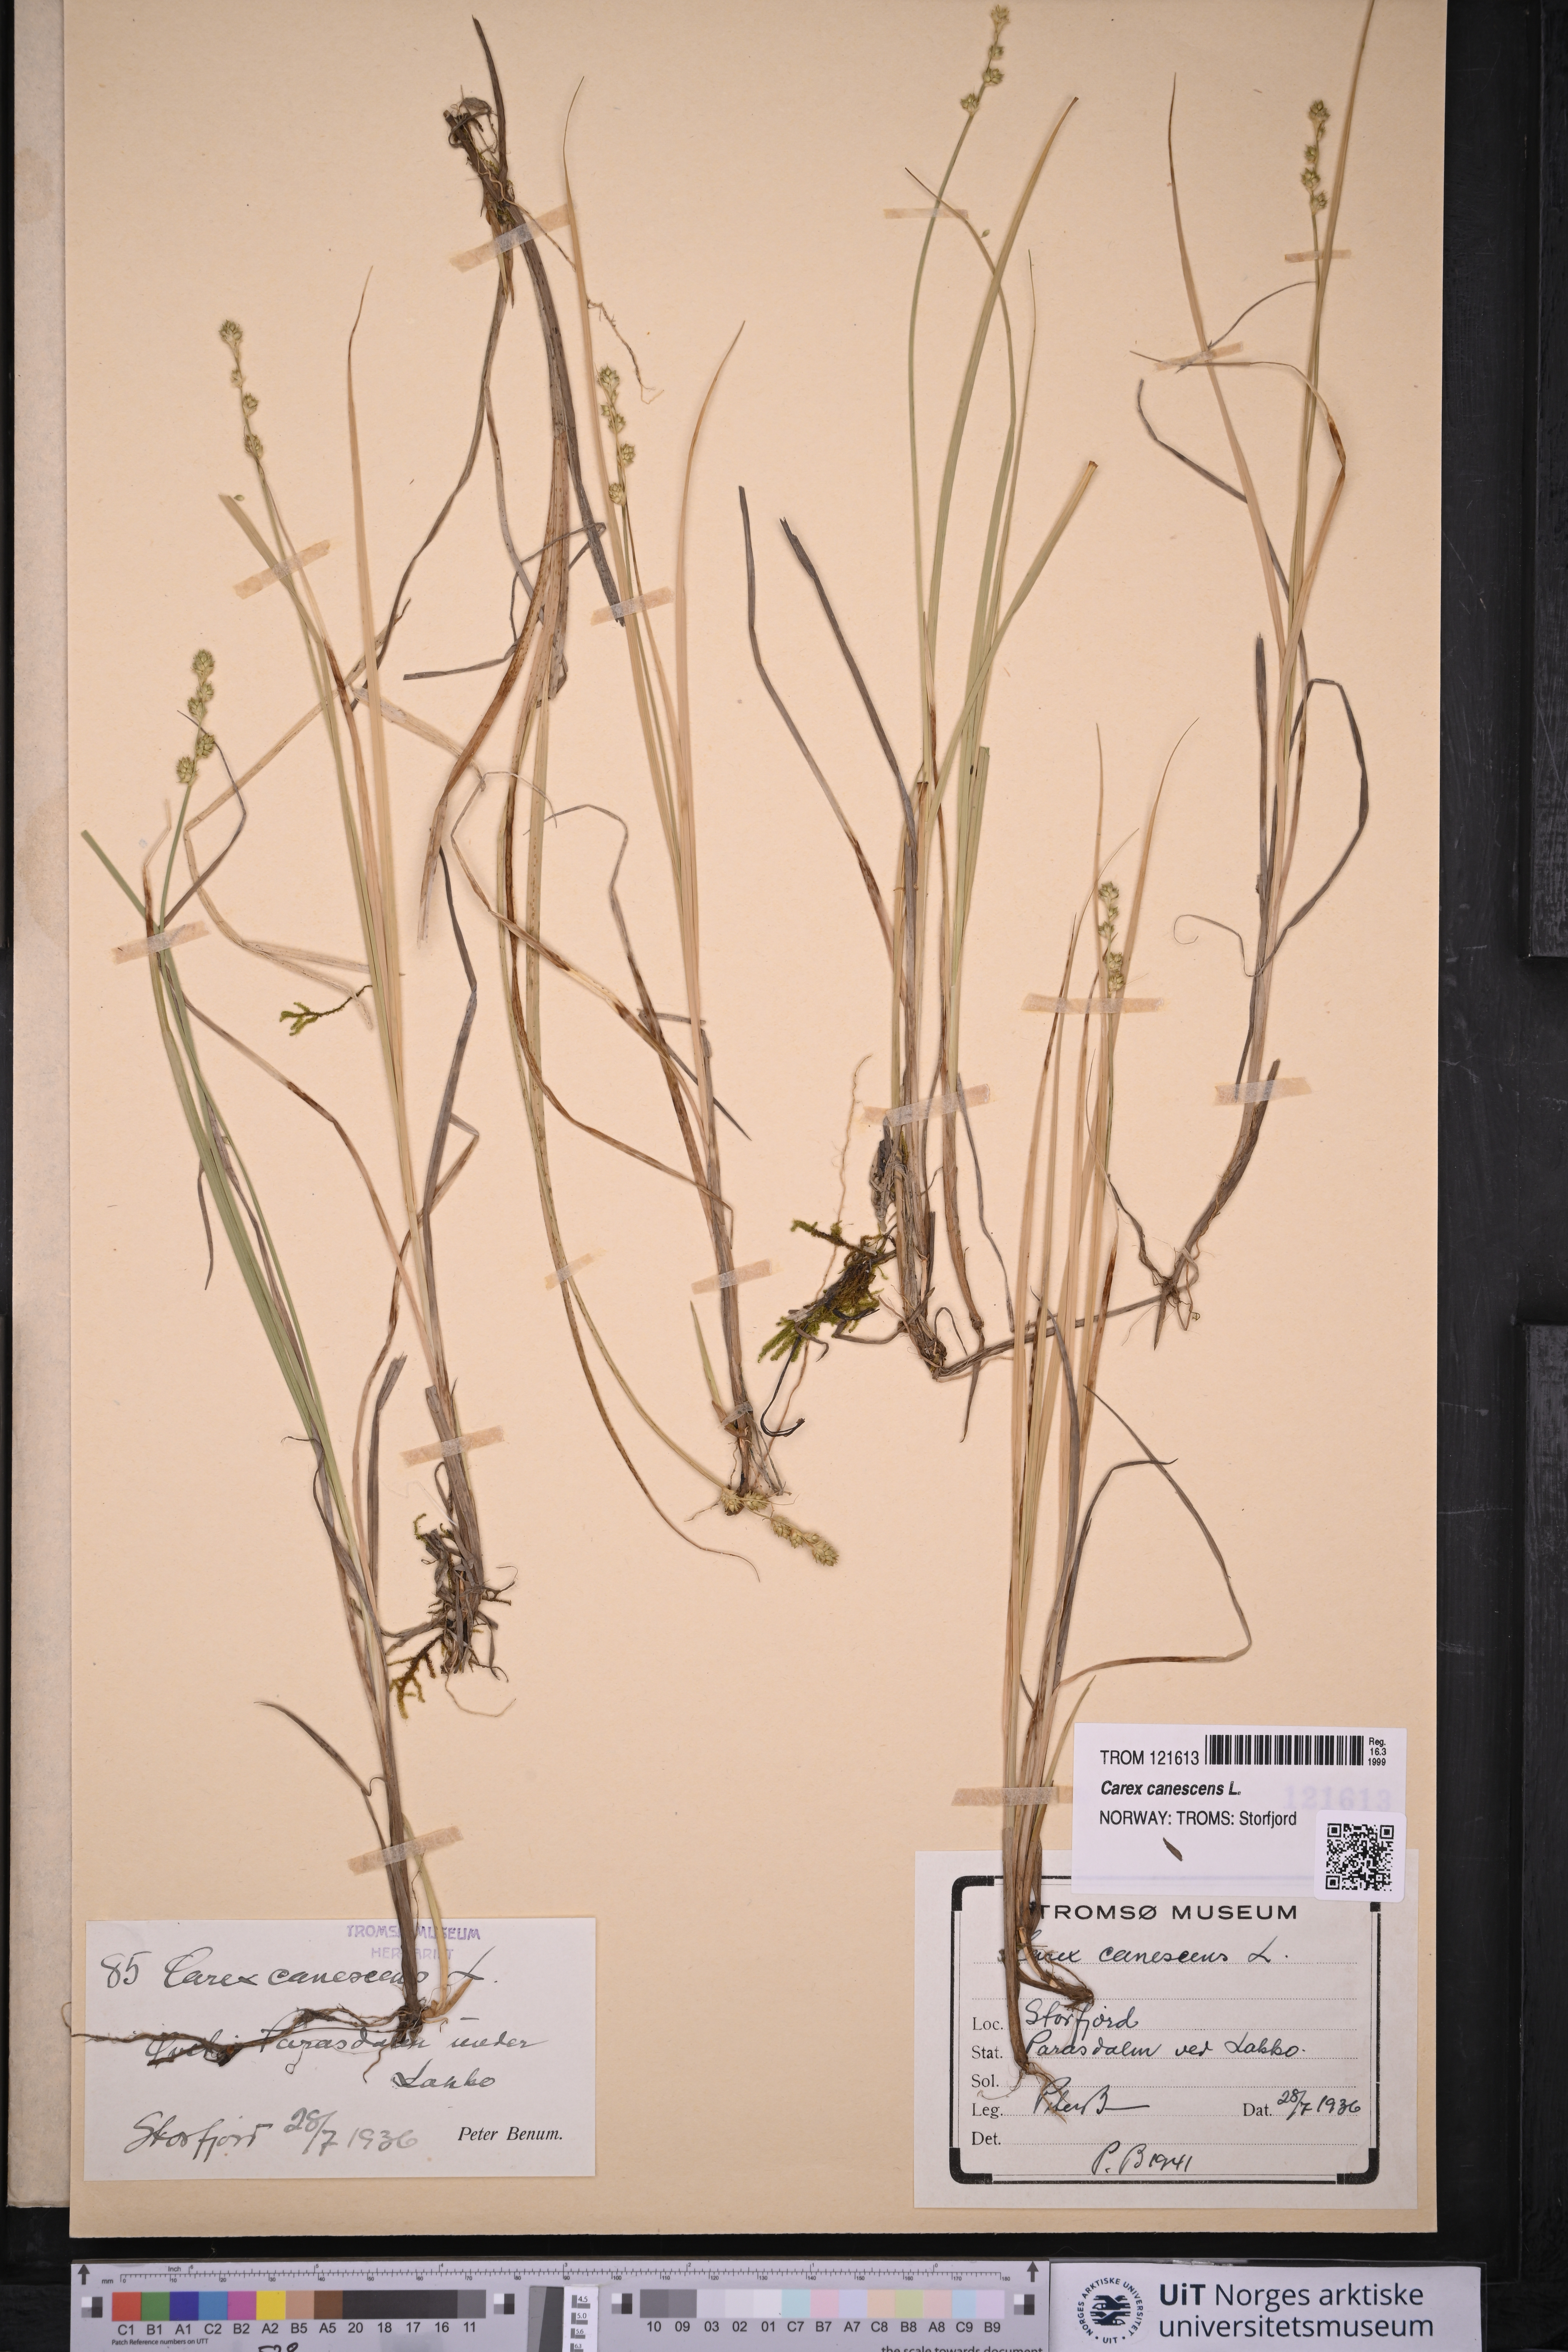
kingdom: Plantae
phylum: Tracheophyta
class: Liliopsida
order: Poales
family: Cyperaceae
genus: Carex
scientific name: Carex canescens
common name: White sedge
